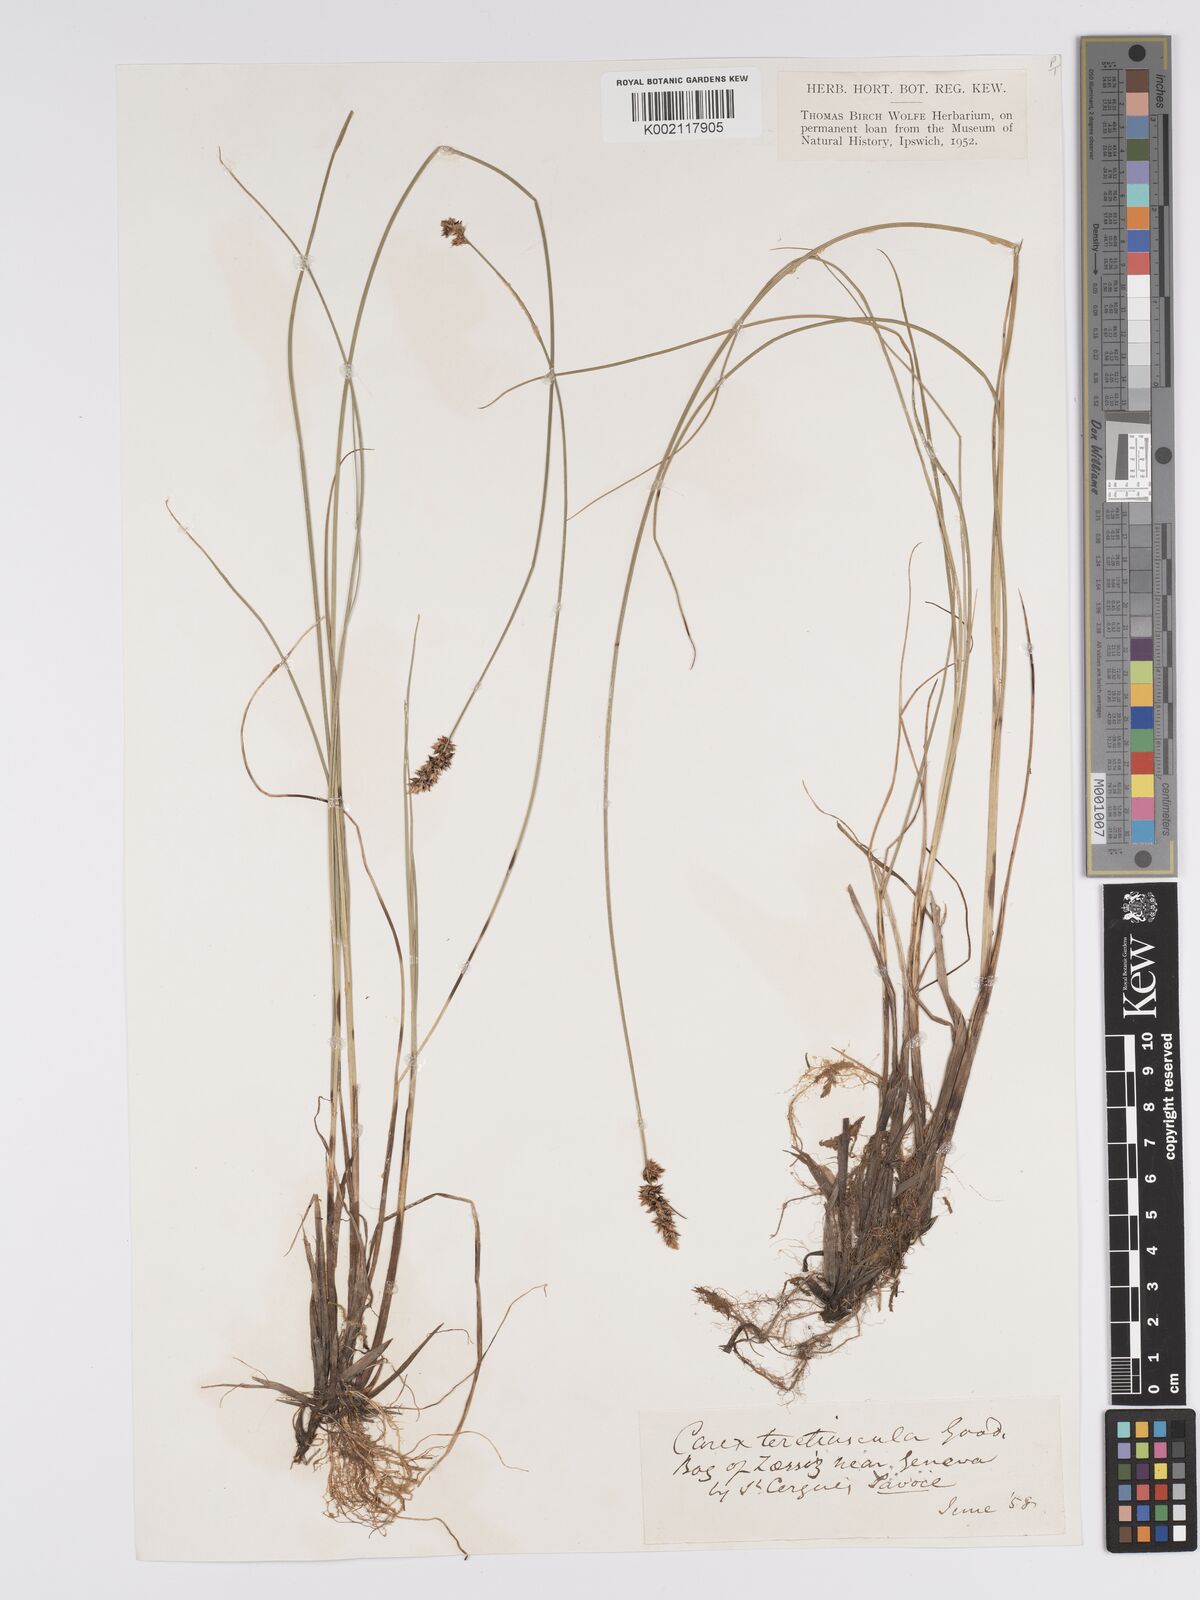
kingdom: Plantae
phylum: Tracheophyta
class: Liliopsida
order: Poales
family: Cyperaceae
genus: Carex
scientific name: Carex diandra
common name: Lesser tussock-sedge
